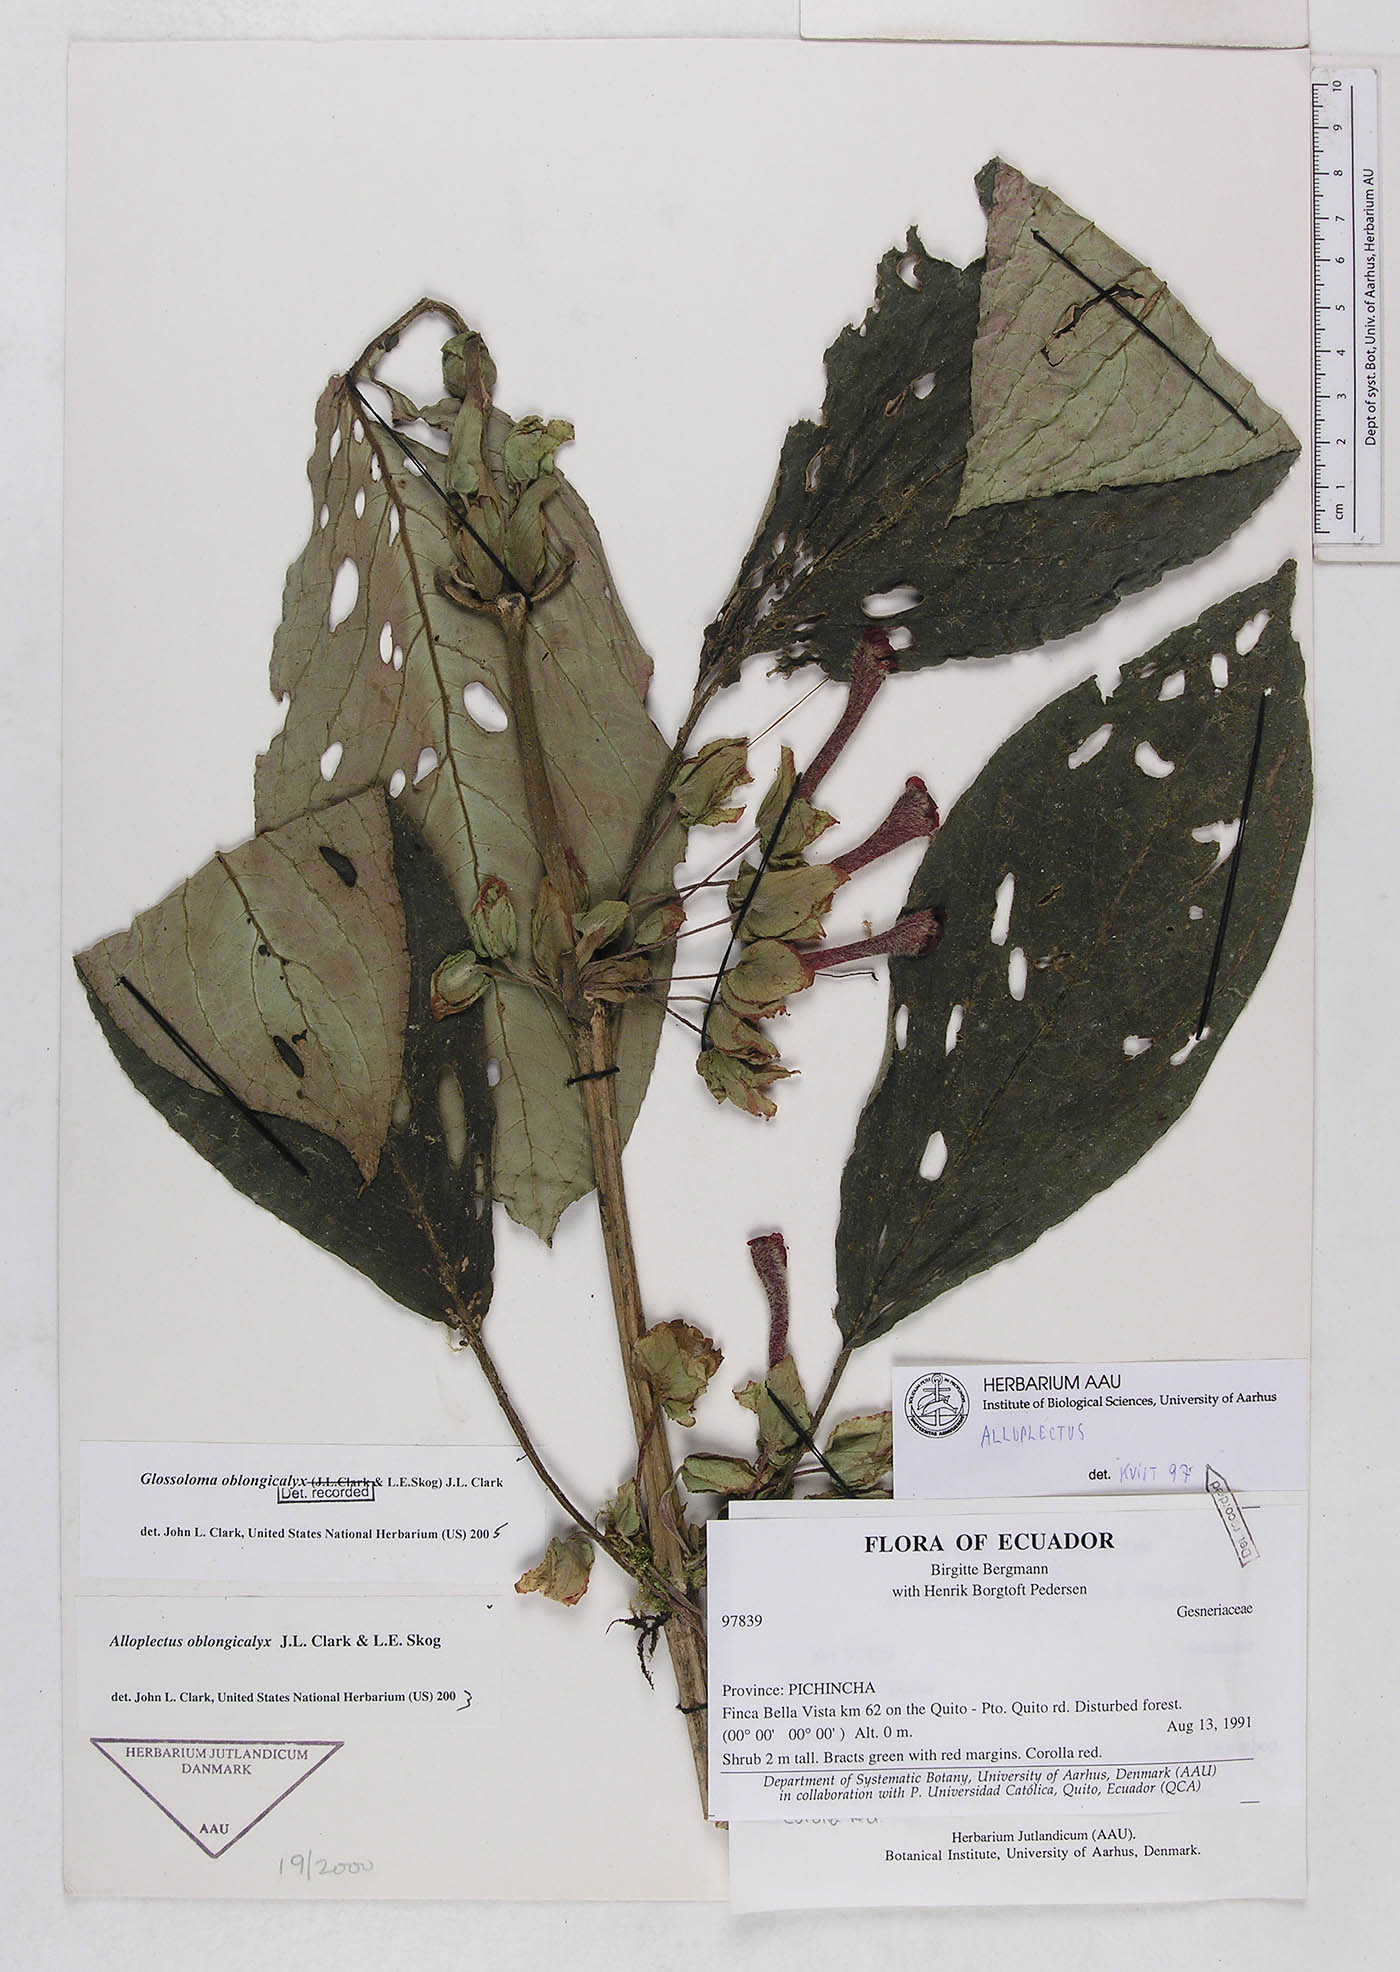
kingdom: Plantae
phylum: Tracheophyta
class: Magnoliopsida
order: Lamiales
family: Gesneriaceae
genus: Glossoloma
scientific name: Glossoloma oblongicalyx
